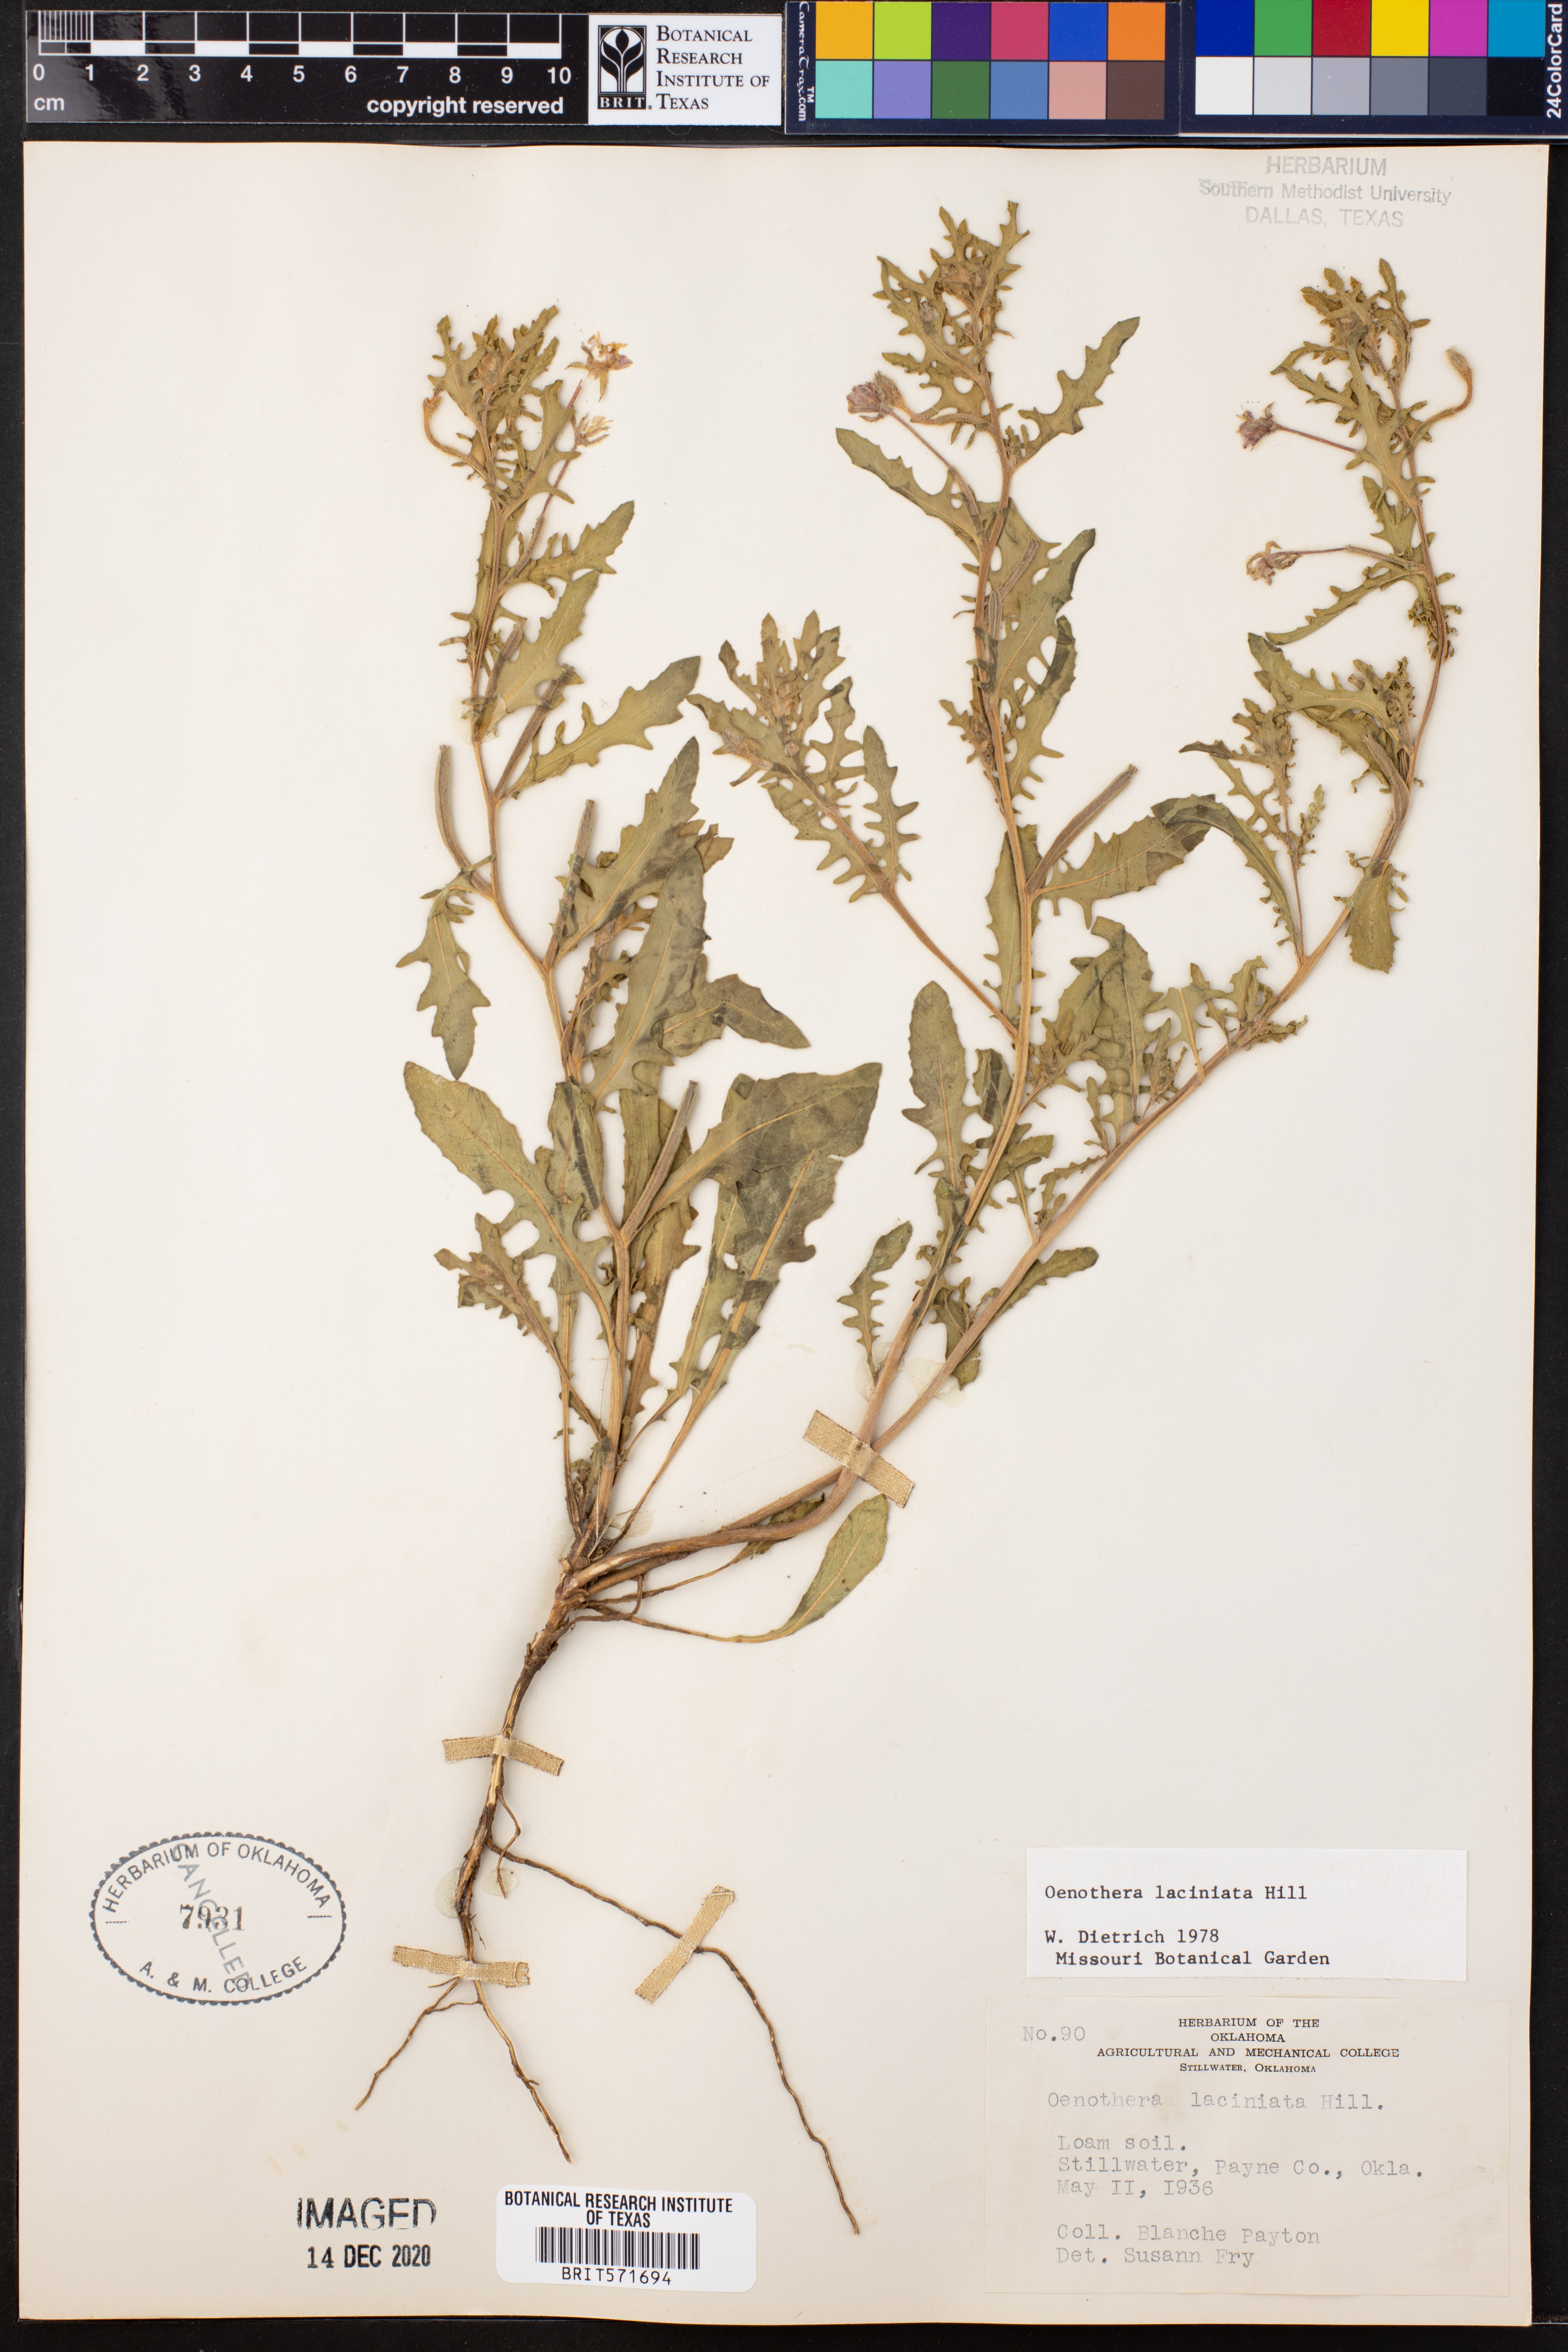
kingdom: Plantae
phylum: Tracheophyta
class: Magnoliopsida
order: Myrtales
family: Onagraceae
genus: Oenothera
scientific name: Oenothera laciniata
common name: Cut-leaved evening-primrose
